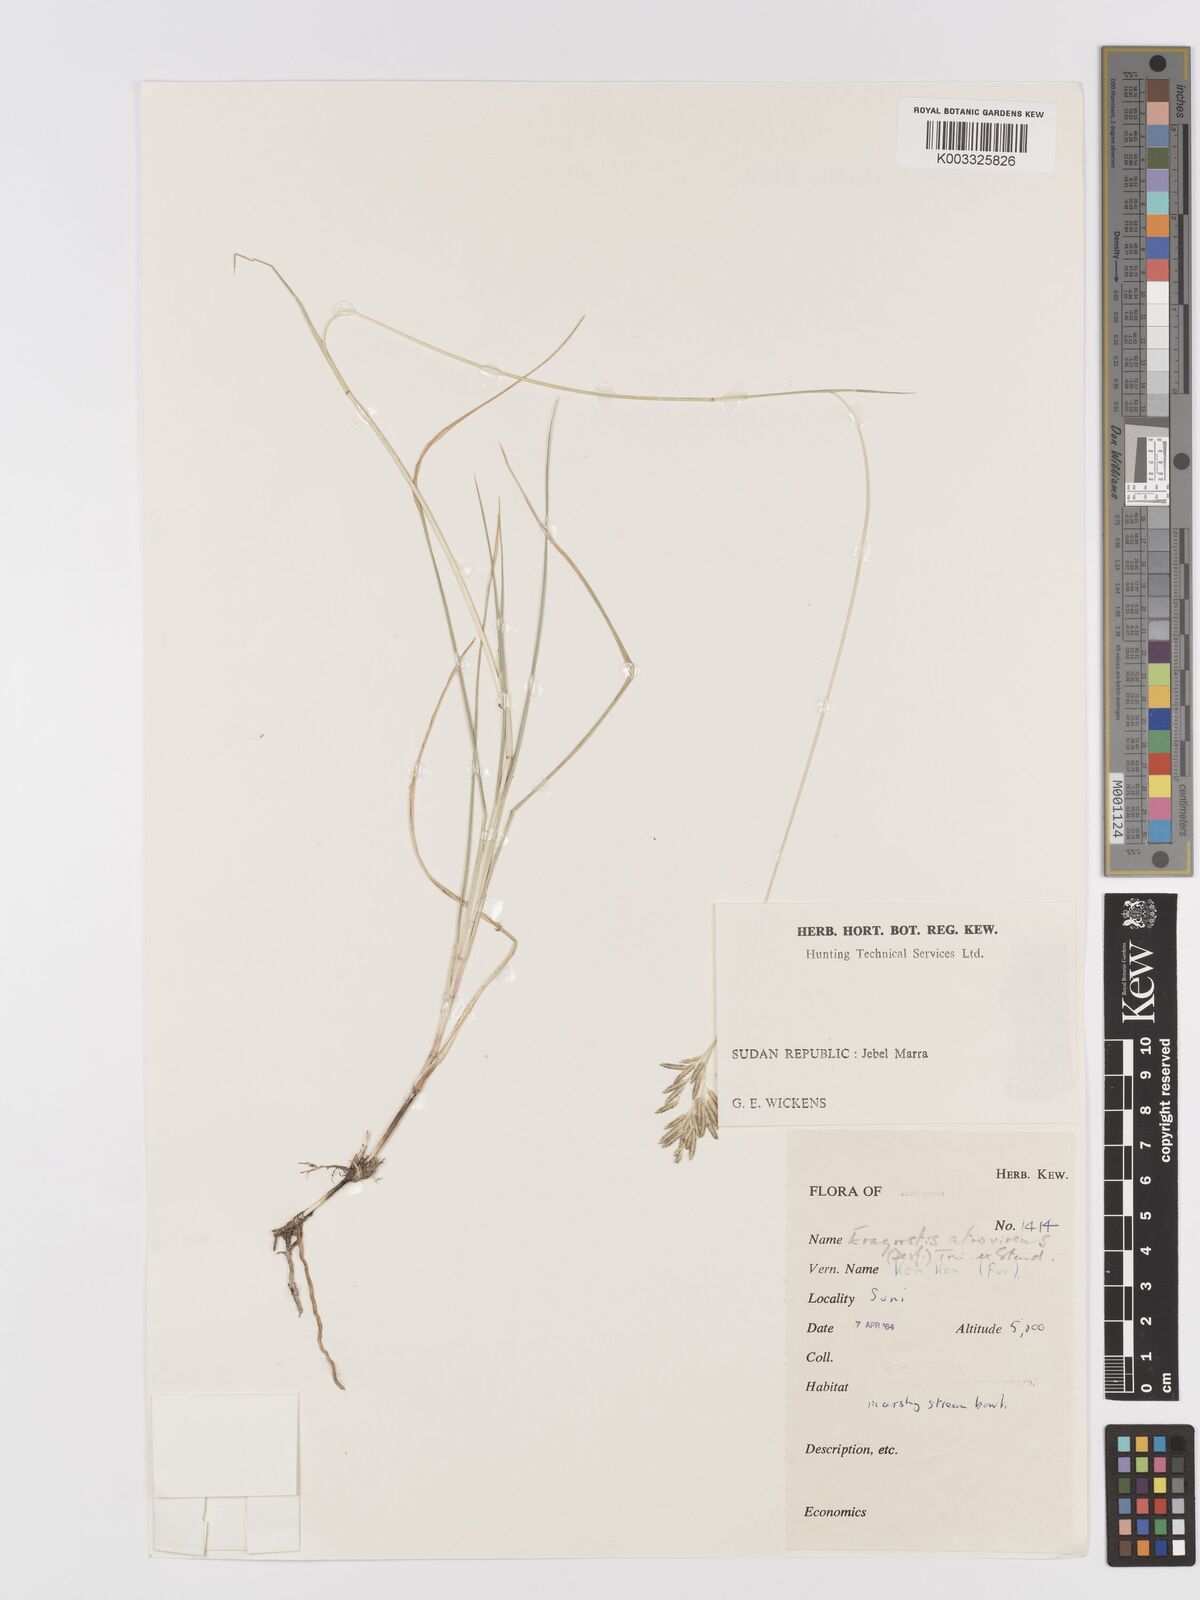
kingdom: Plantae
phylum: Tracheophyta
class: Liliopsida
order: Poales
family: Poaceae
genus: Eragrostis
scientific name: Eragrostis atrovirens
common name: Thalia lovegrass
